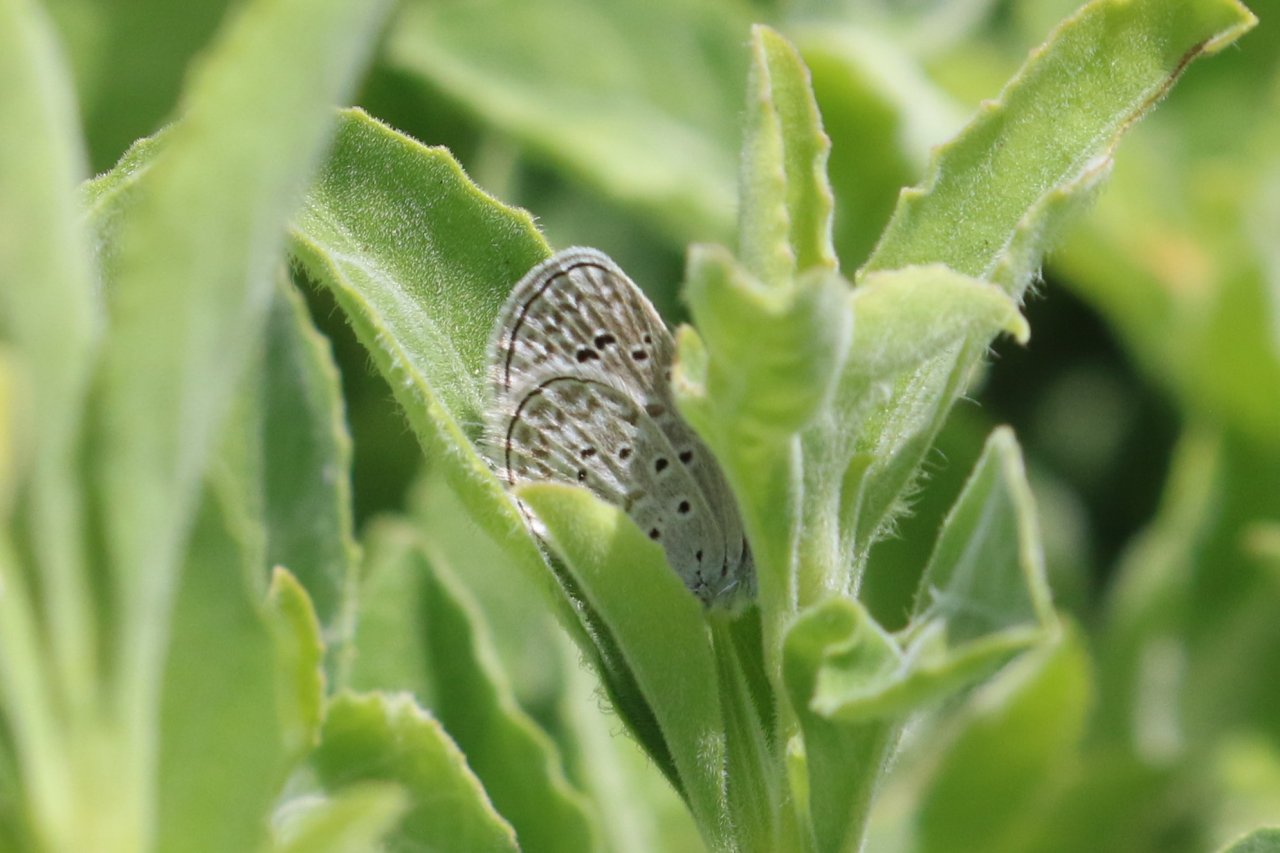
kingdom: Animalia
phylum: Arthropoda
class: Insecta
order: Lepidoptera
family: Lycaenidae
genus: Lycaena
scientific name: Lycaena cyna
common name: Cyna Blue
